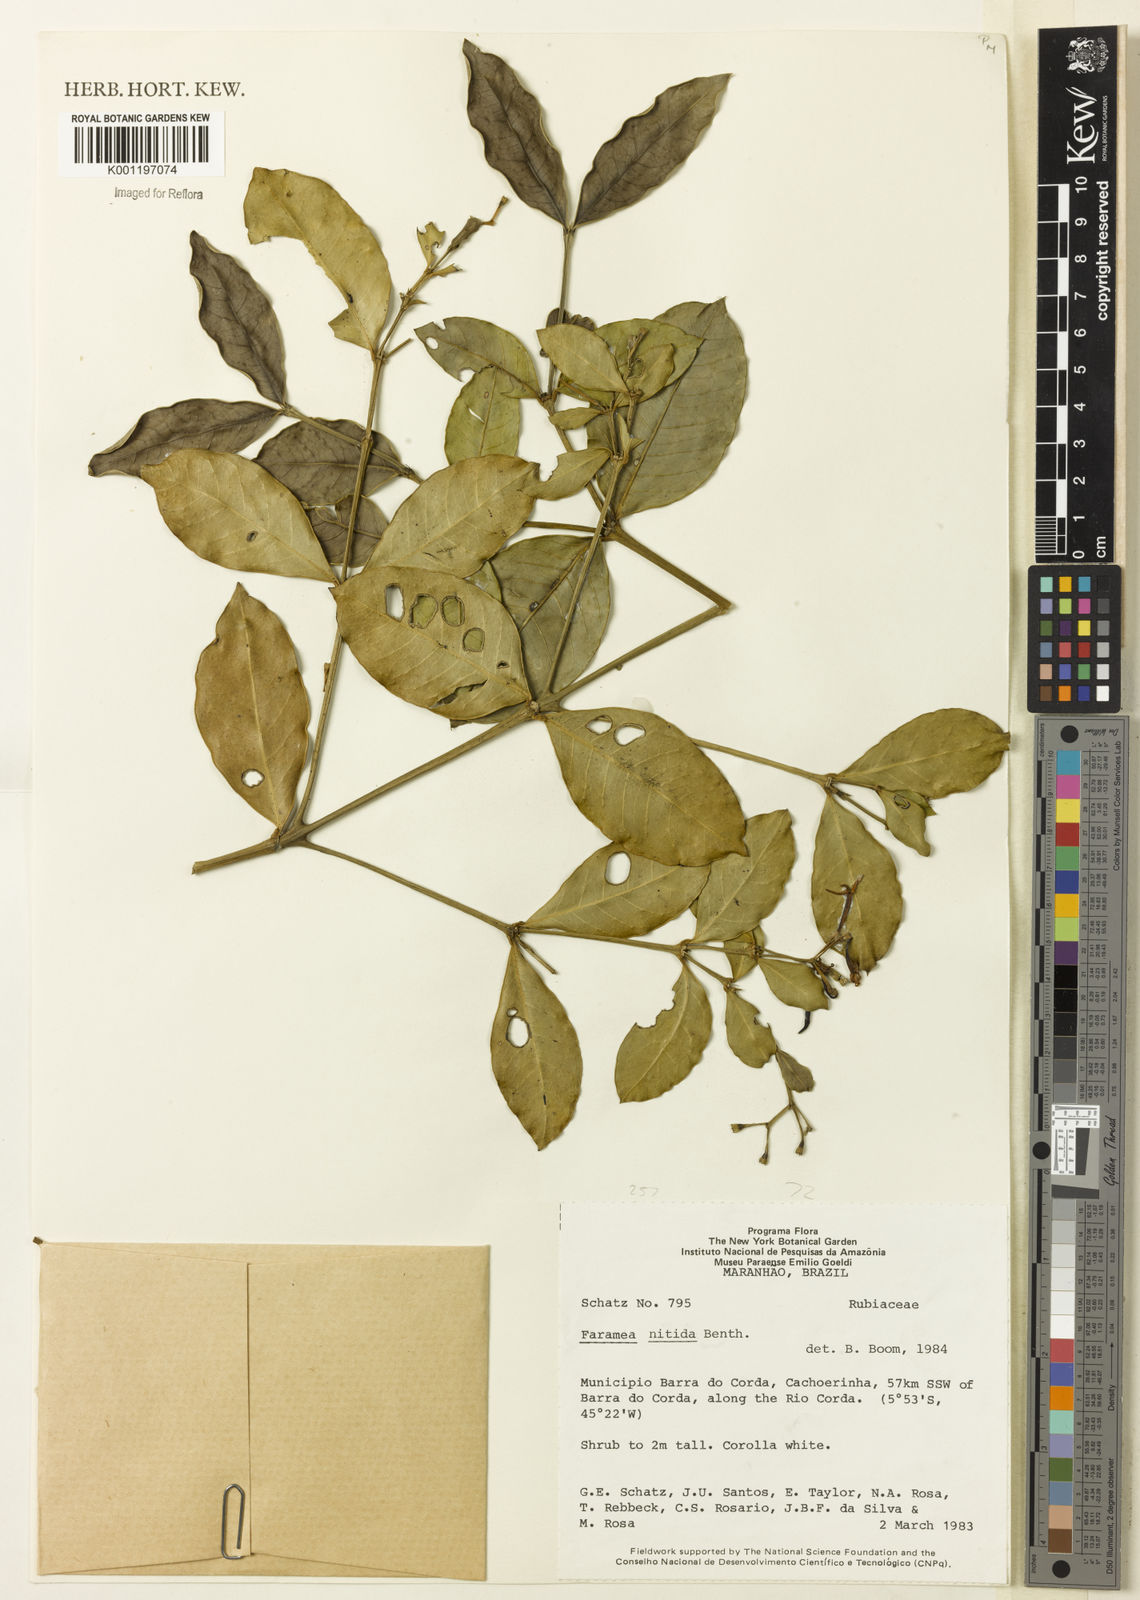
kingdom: Plantae
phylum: Tracheophyta
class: Magnoliopsida
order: Gentianales
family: Rubiaceae
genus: Faramea
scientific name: Faramea nitida
